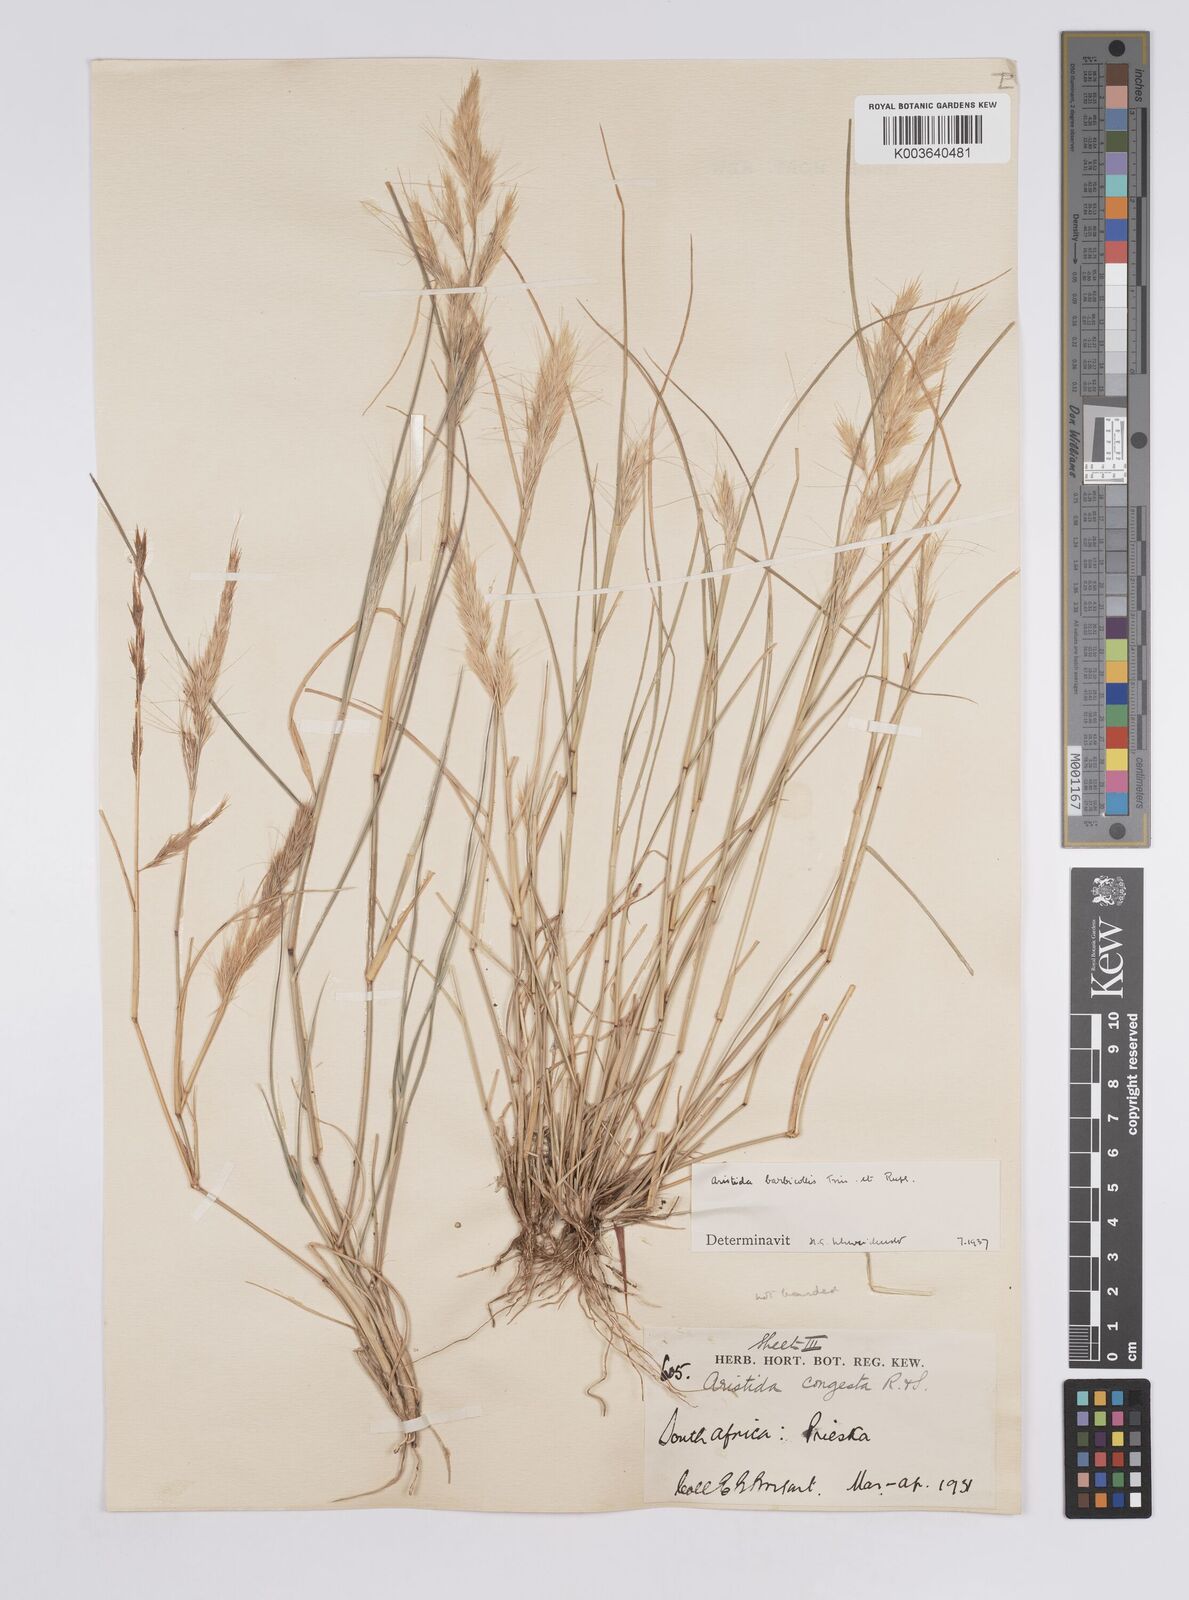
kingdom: Plantae
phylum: Tracheophyta
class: Liliopsida
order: Poales
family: Poaceae
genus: Aristida
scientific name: Aristida barbicollis
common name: Spreading prickle grass
